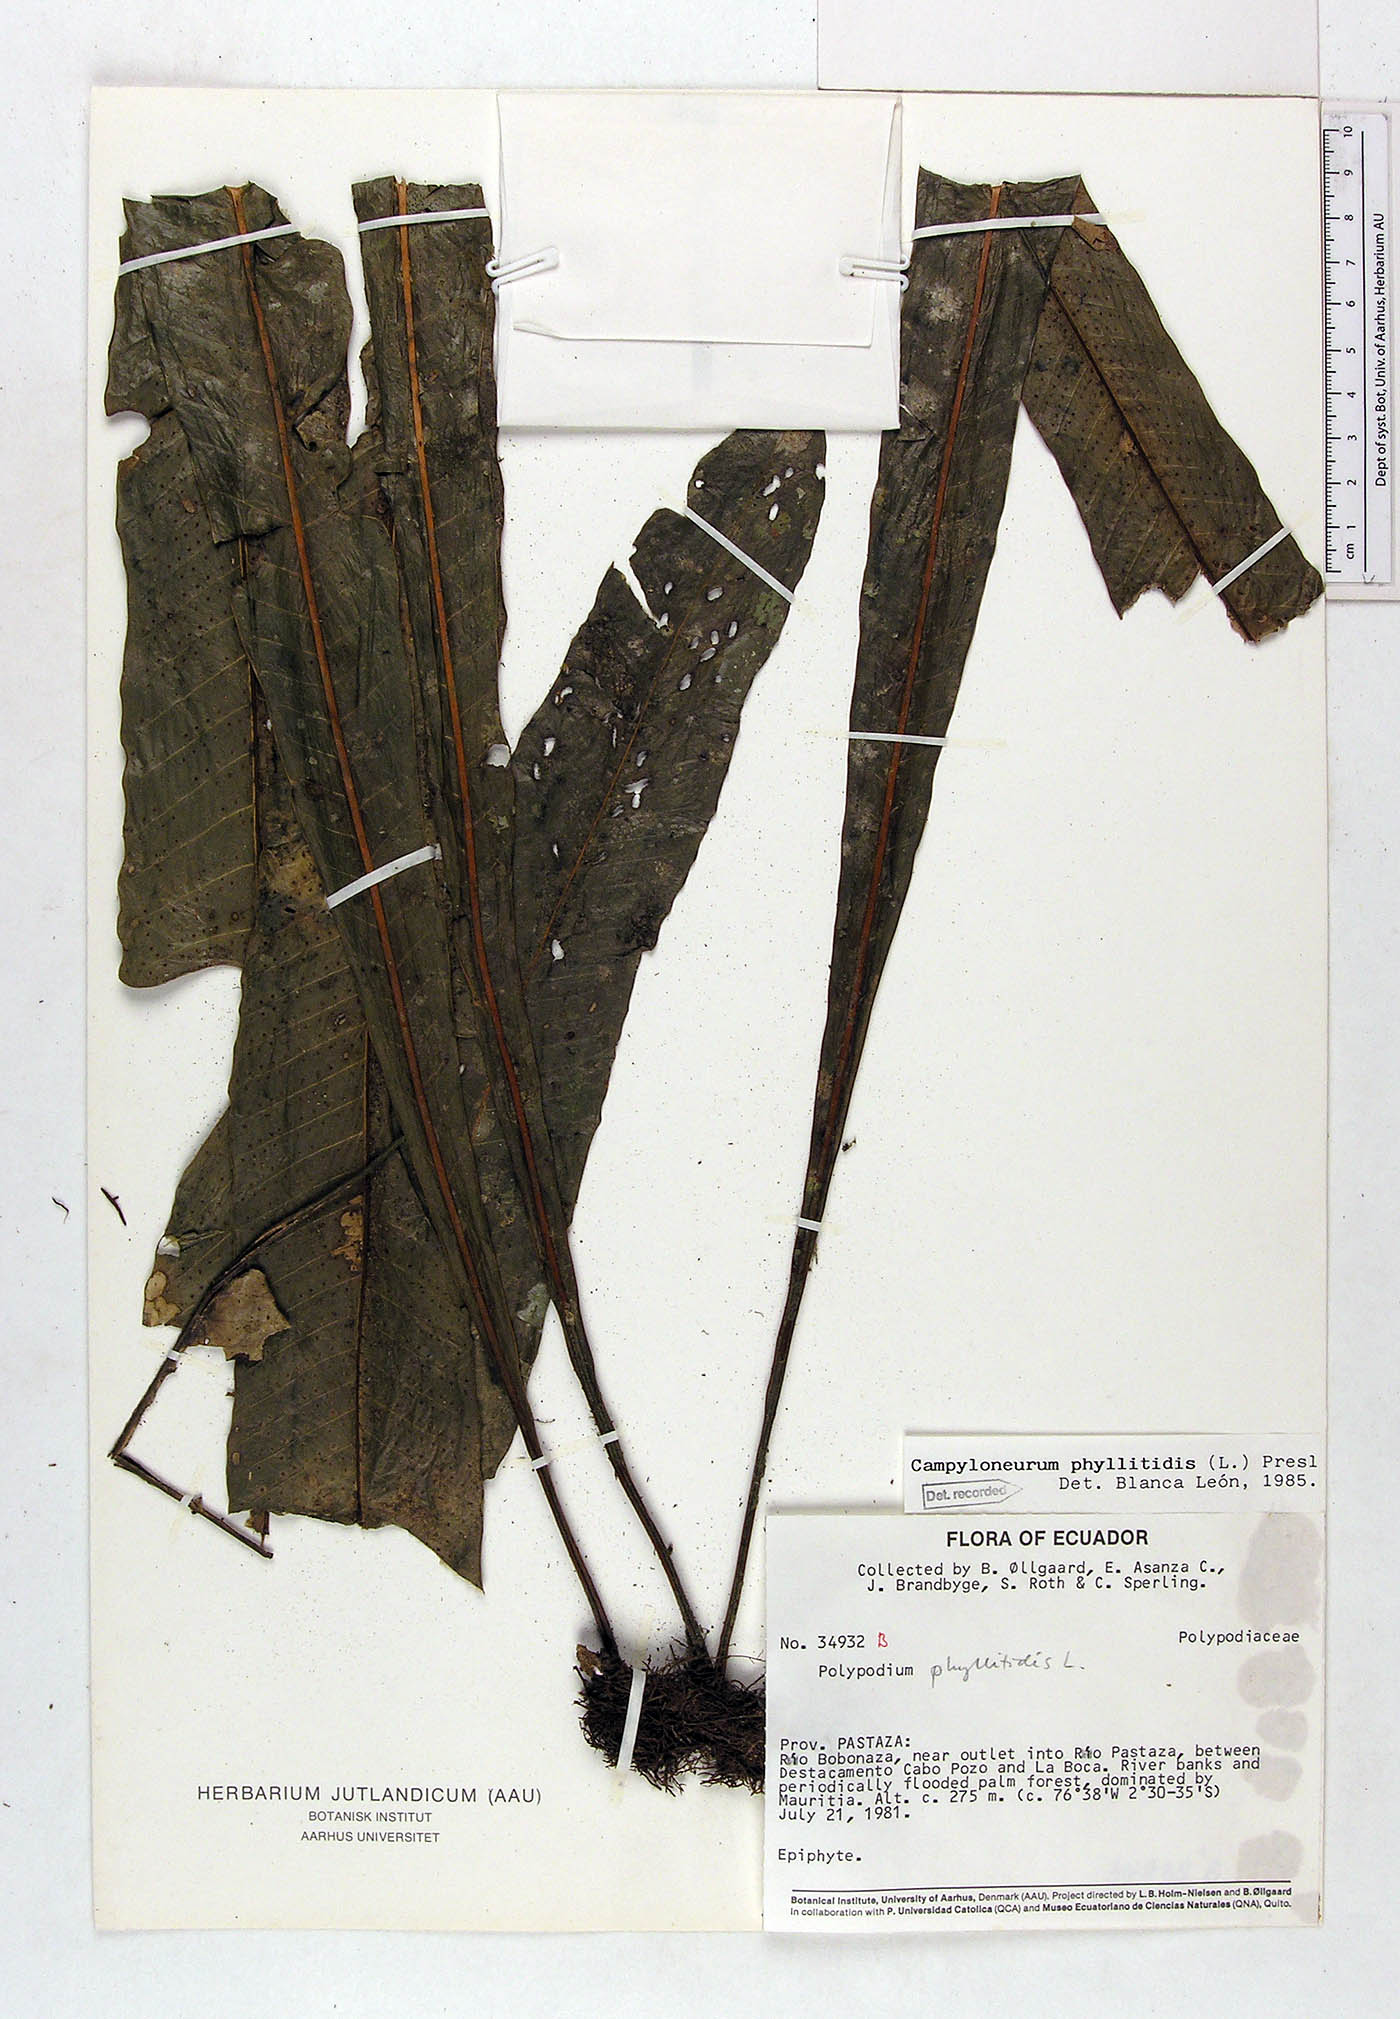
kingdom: Plantae
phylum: Tracheophyta
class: Polypodiopsida
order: Polypodiales
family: Polypodiaceae
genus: Campyloneurum
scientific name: Campyloneurum phyllitidis
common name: Cow-tongue fern
